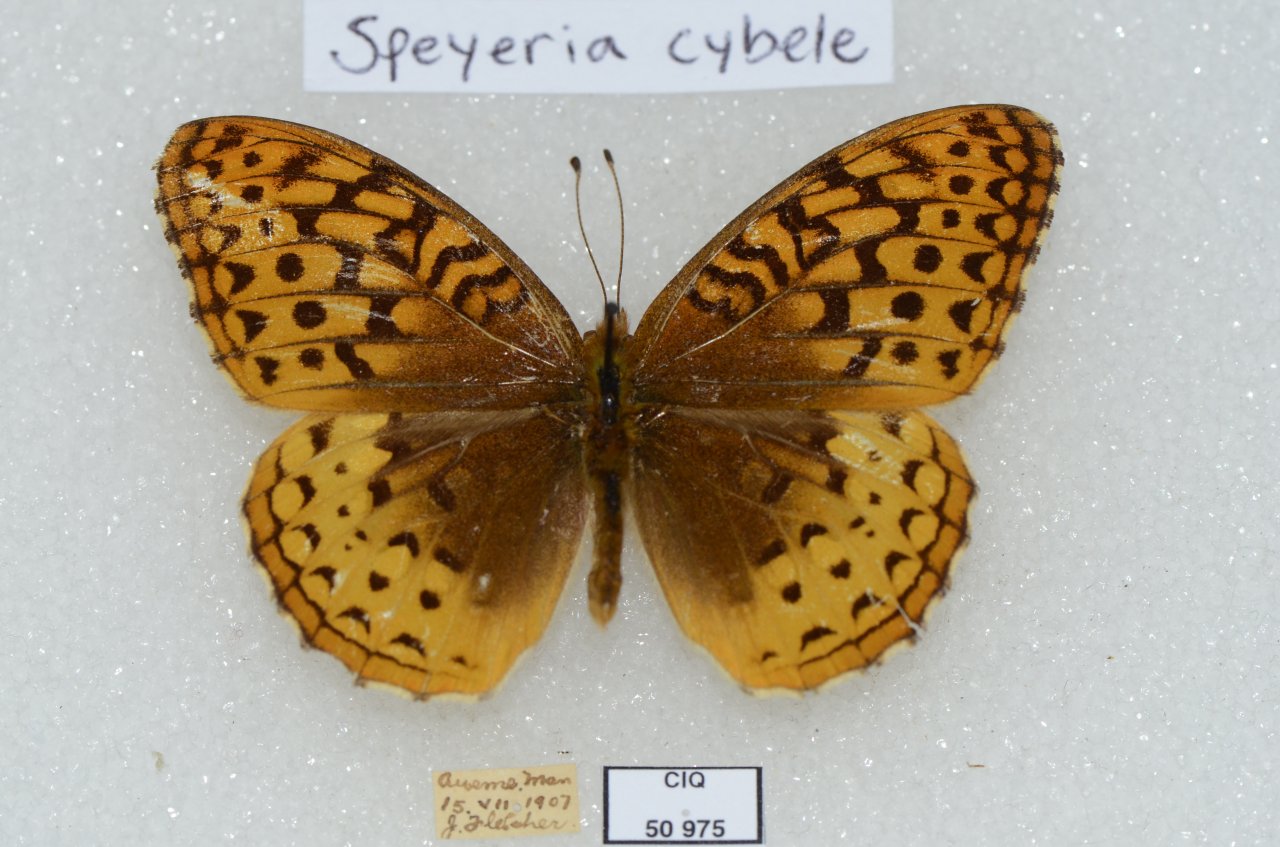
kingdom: Animalia
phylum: Arthropoda
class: Insecta
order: Lepidoptera
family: Nymphalidae
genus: Speyeria
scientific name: Speyeria cybele
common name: Great Spangled Fritillary
